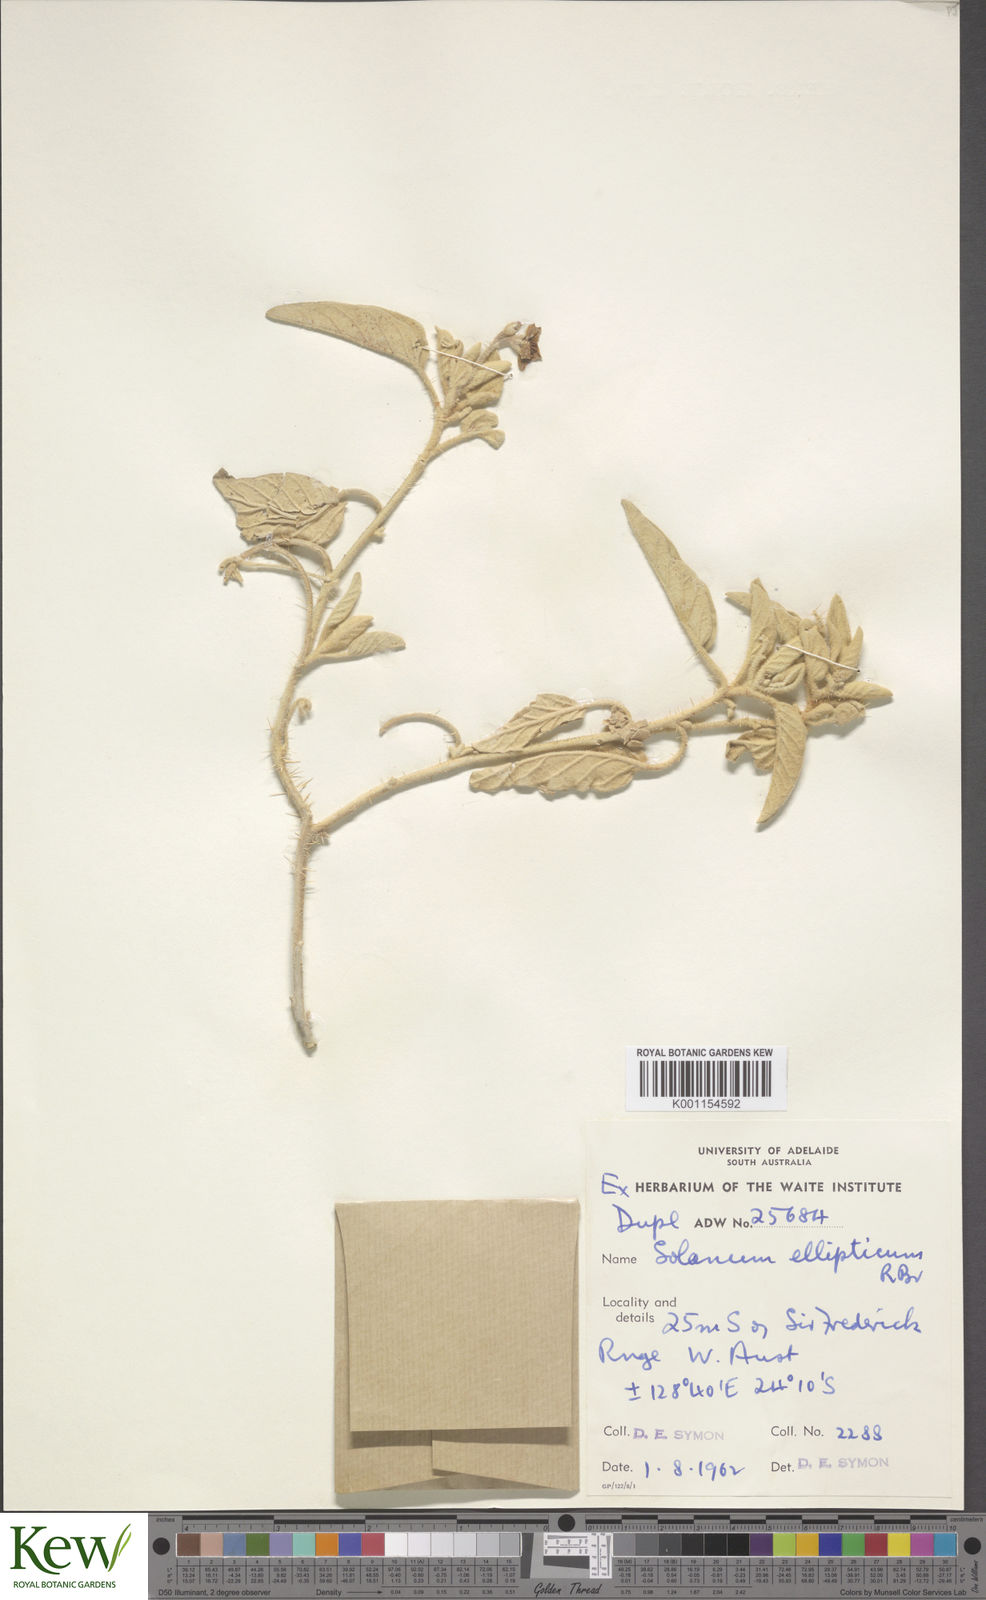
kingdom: Plantae
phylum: Tracheophyta
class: Magnoliopsida
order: Solanales
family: Solanaceae
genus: Solanum
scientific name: Solanum ellipticum
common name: Potato-bush
